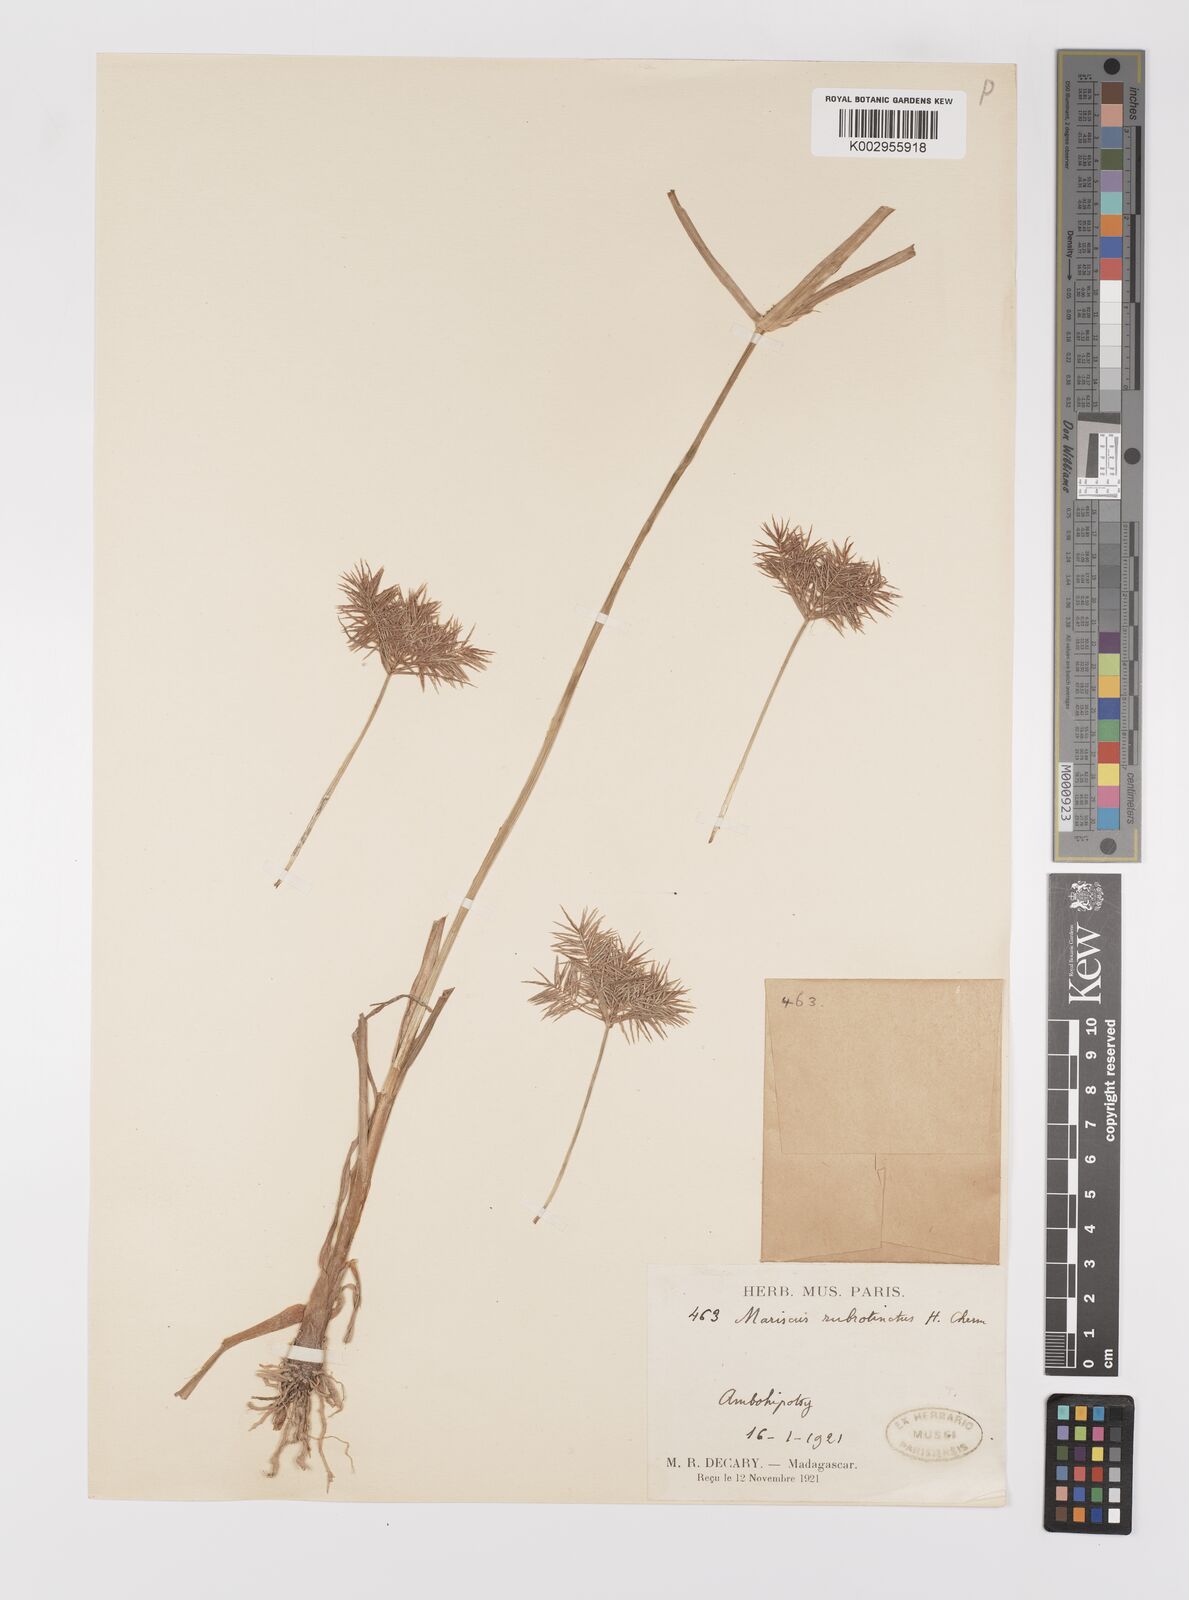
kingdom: Plantae
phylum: Tracheophyta
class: Liliopsida
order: Poales
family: Cyperaceae
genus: Cyperus
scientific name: Cyperus distans
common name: Slender cyperus
